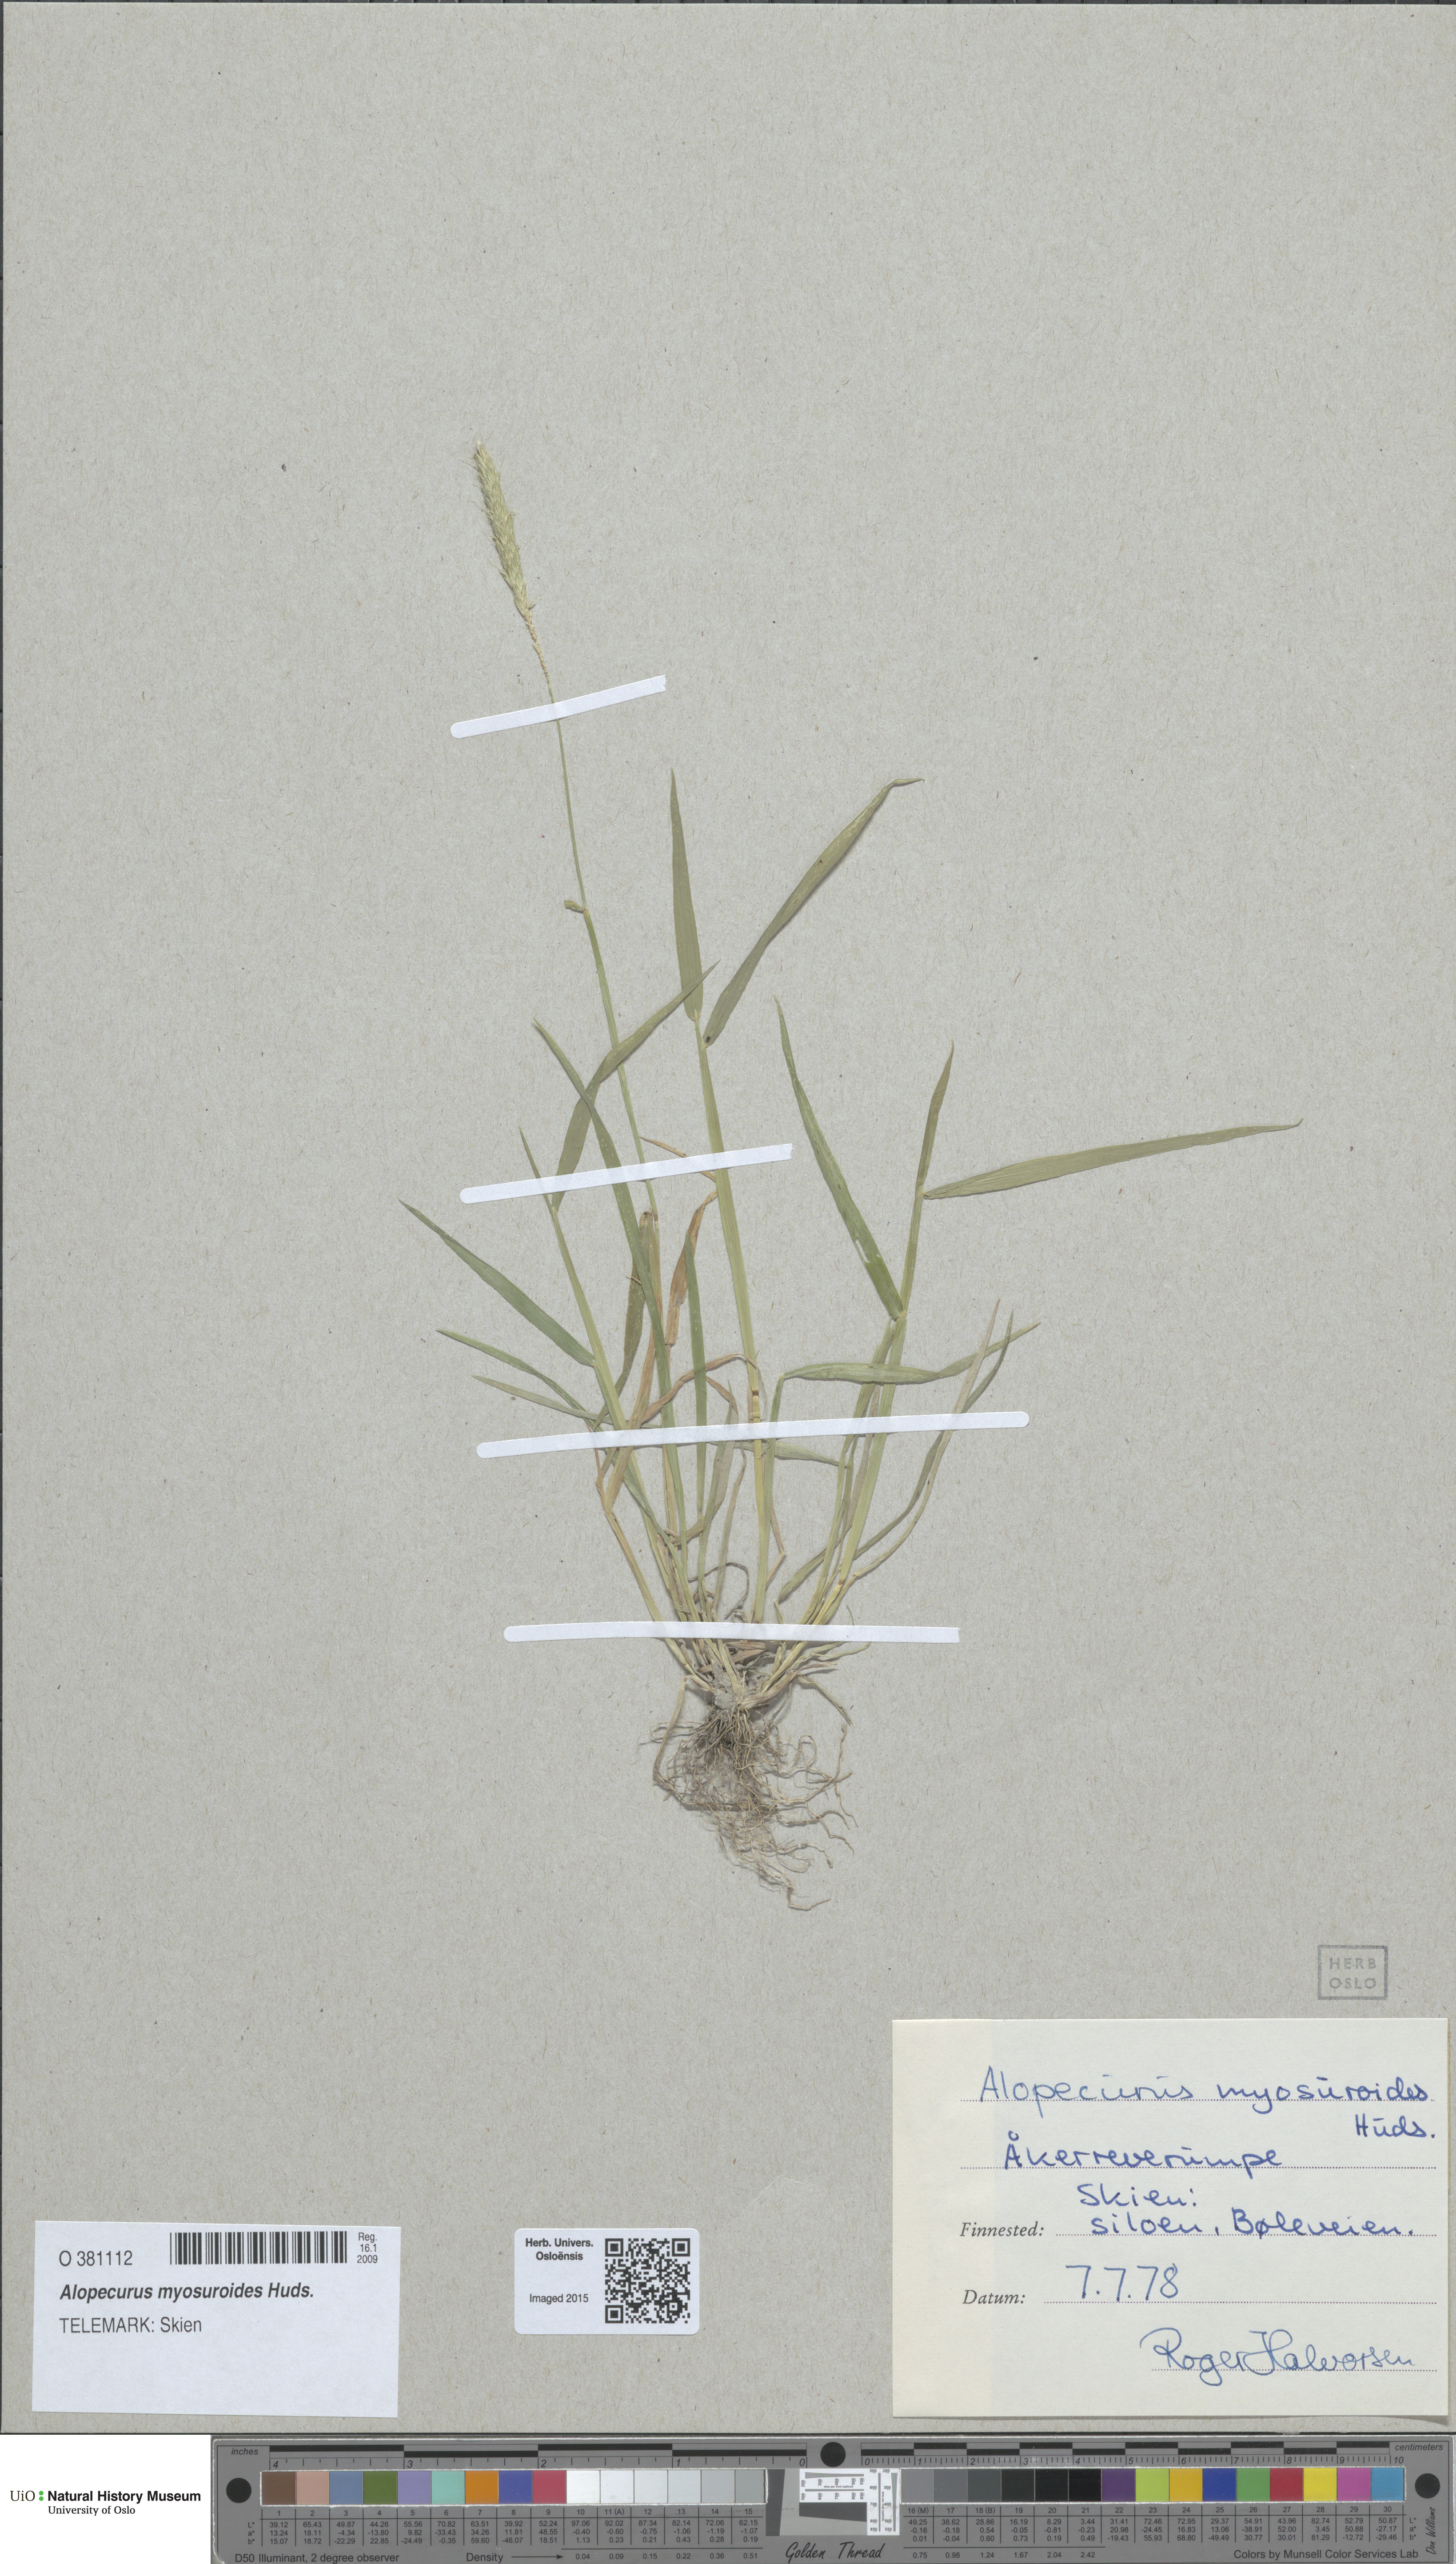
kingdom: Plantae
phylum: Tracheophyta
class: Liliopsida
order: Poales
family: Poaceae
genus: Alopecurus
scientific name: Alopecurus myosuroides
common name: Black-grass
